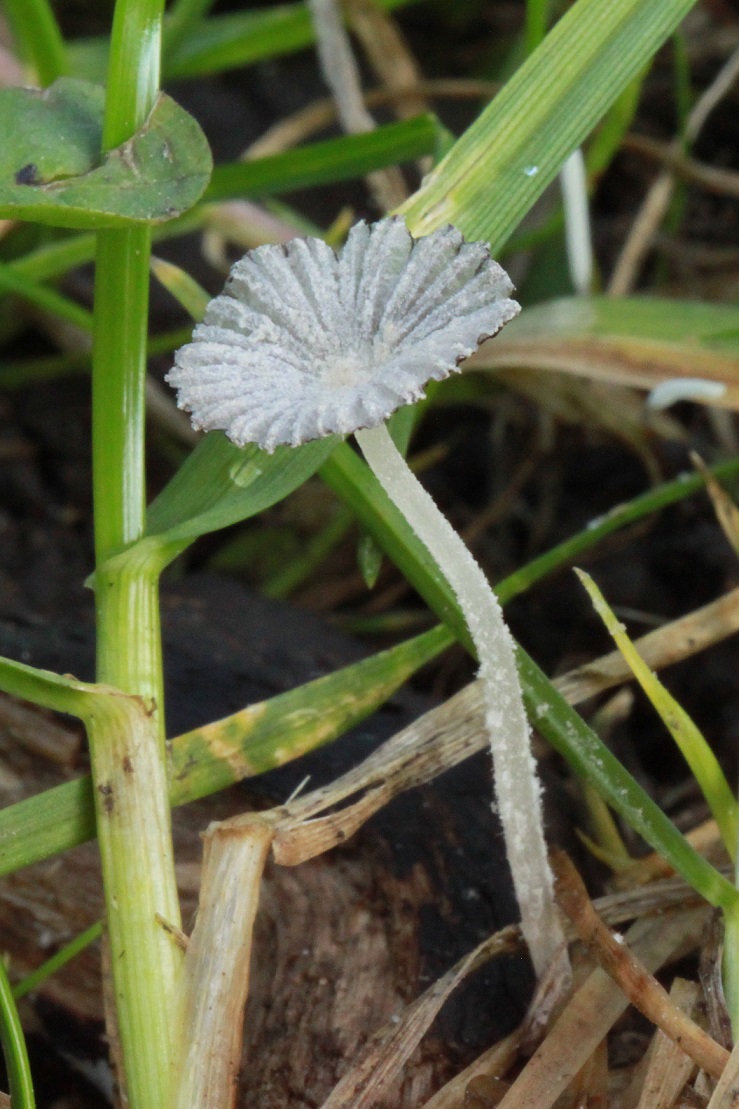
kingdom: Fungi
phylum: Basidiomycota
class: Agaricomycetes
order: Agaricales
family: Psathyrellaceae
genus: Coprinopsis
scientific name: Coprinopsis coniophora
